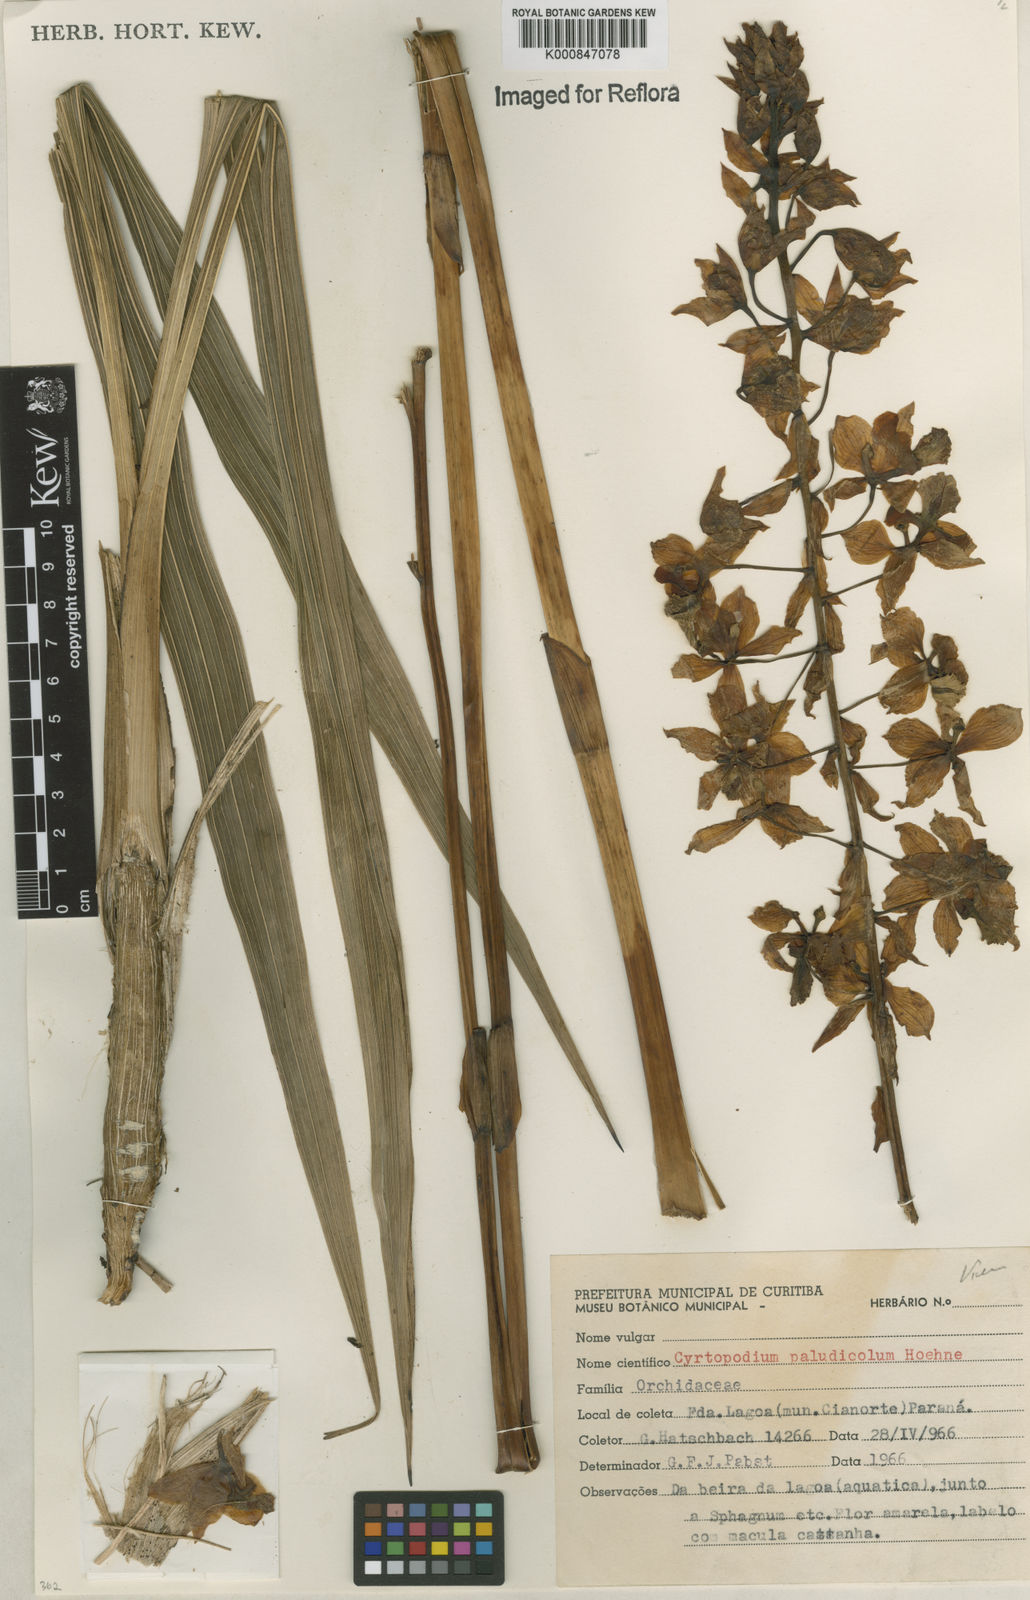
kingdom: Plantae
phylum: Tracheophyta
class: Liliopsida
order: Asparagales
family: Orchidaceae
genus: Cyrtopodium
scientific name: Cyrtopodium paludicola
